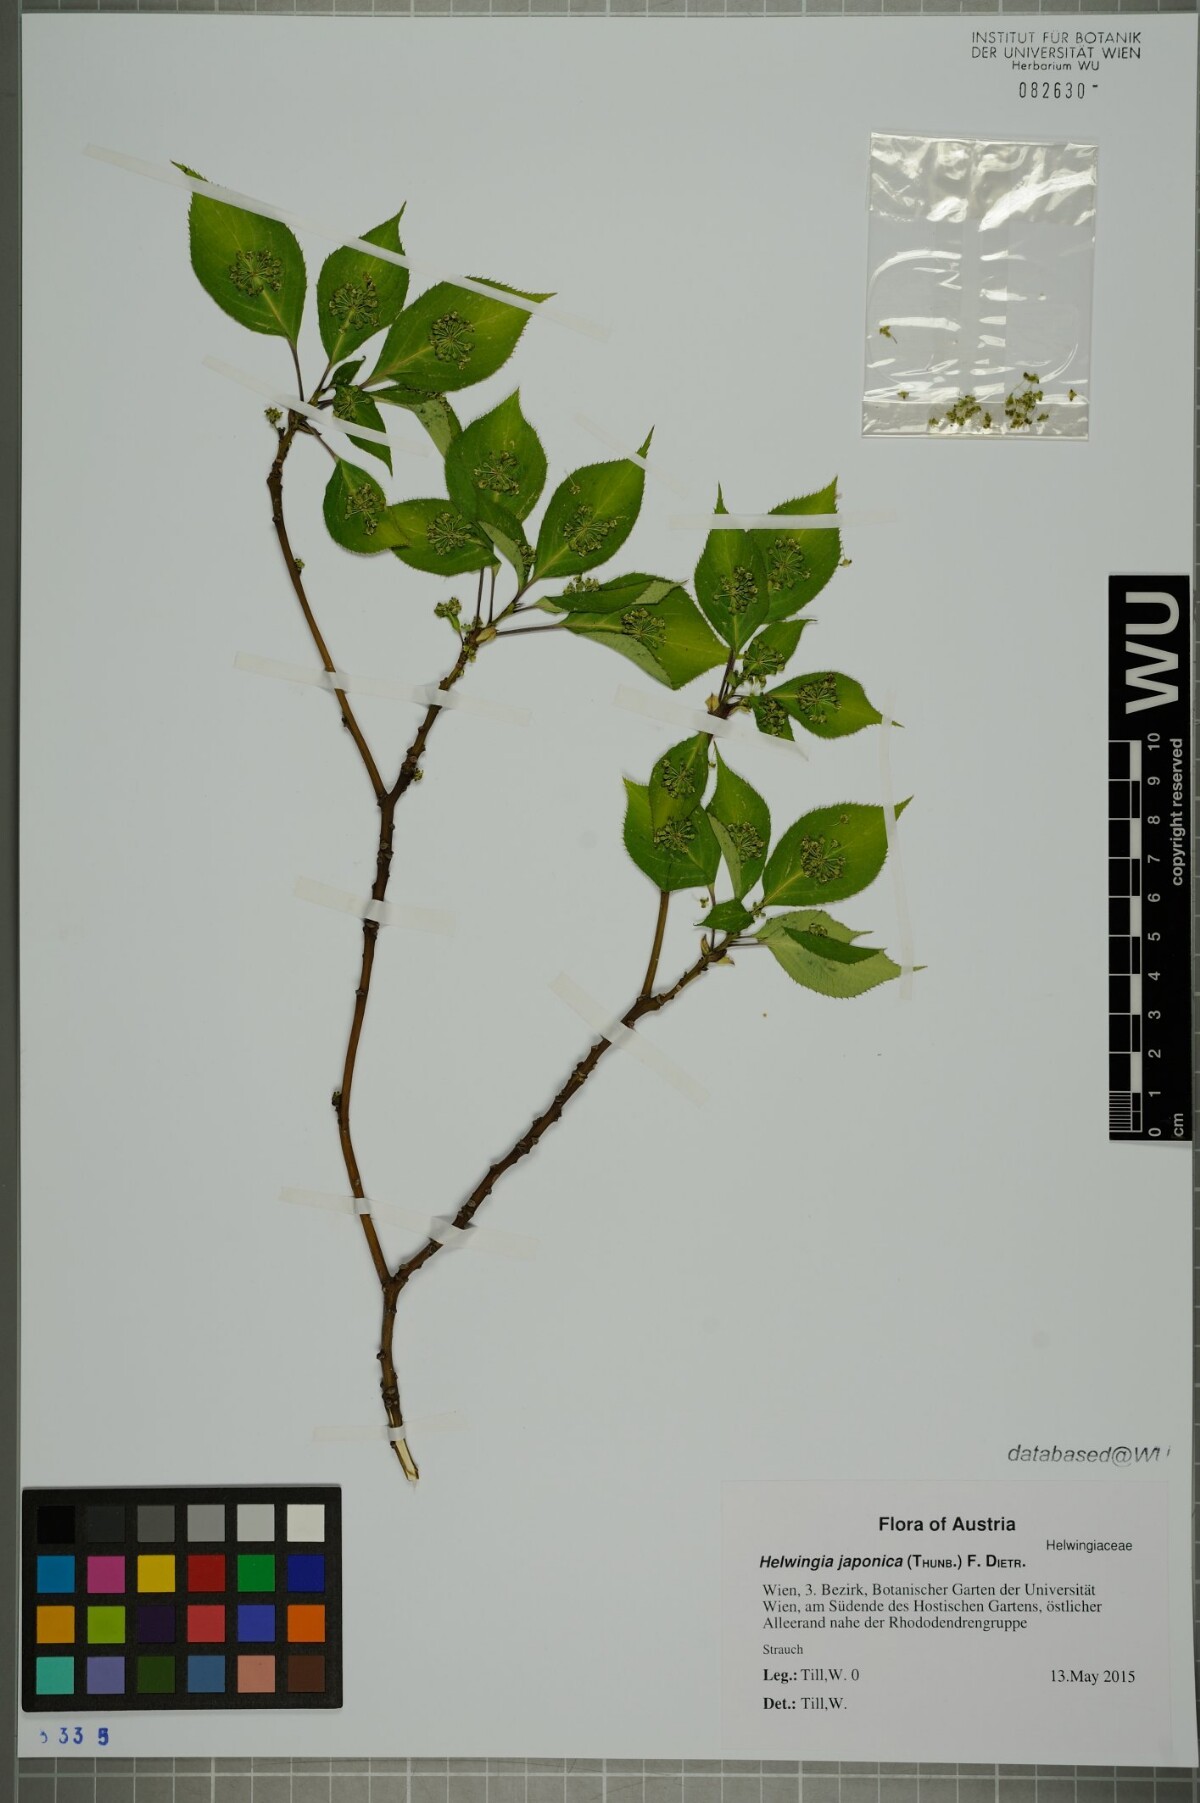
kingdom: Plantae
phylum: Tracheophyta
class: Magnoliopsida
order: Aquifoliales
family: Helwingiaceae
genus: Helwingia
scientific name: Helwingia japonica
